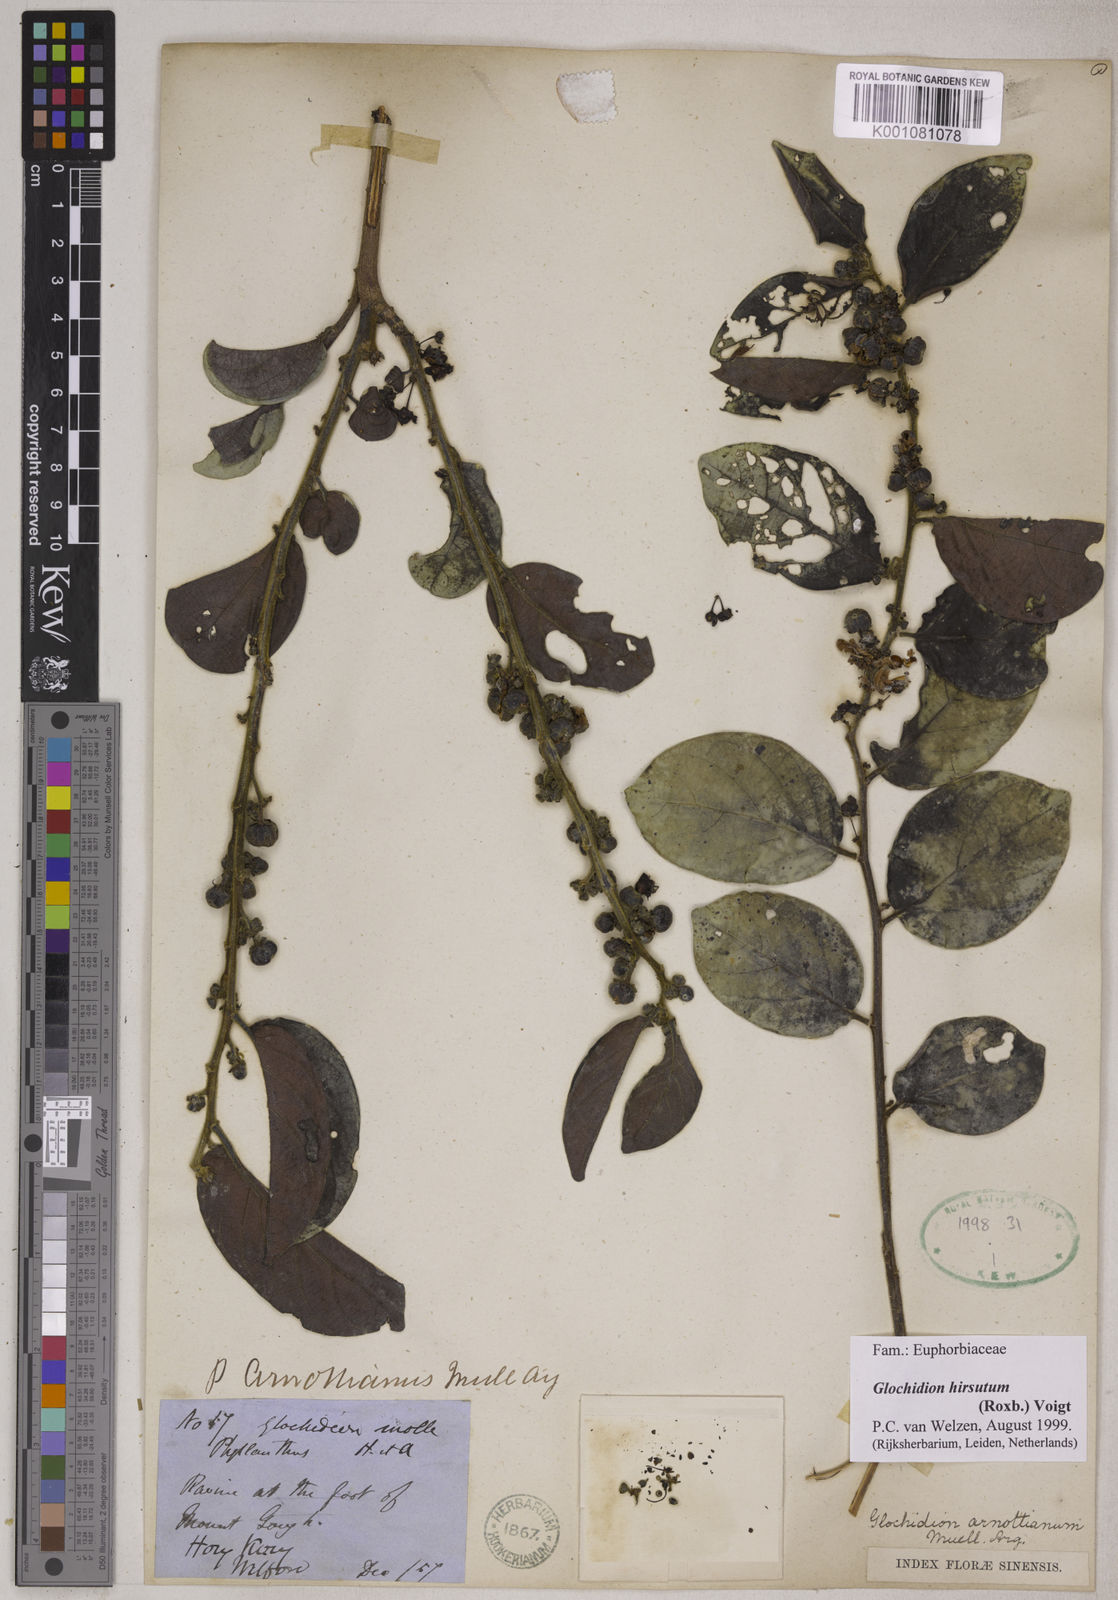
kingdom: Plantae
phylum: Tracheophyta
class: Magnoliopsida
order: Malpighiales
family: Phyllanthaceae
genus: Glochidion
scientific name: Glochidion zeylanicum
